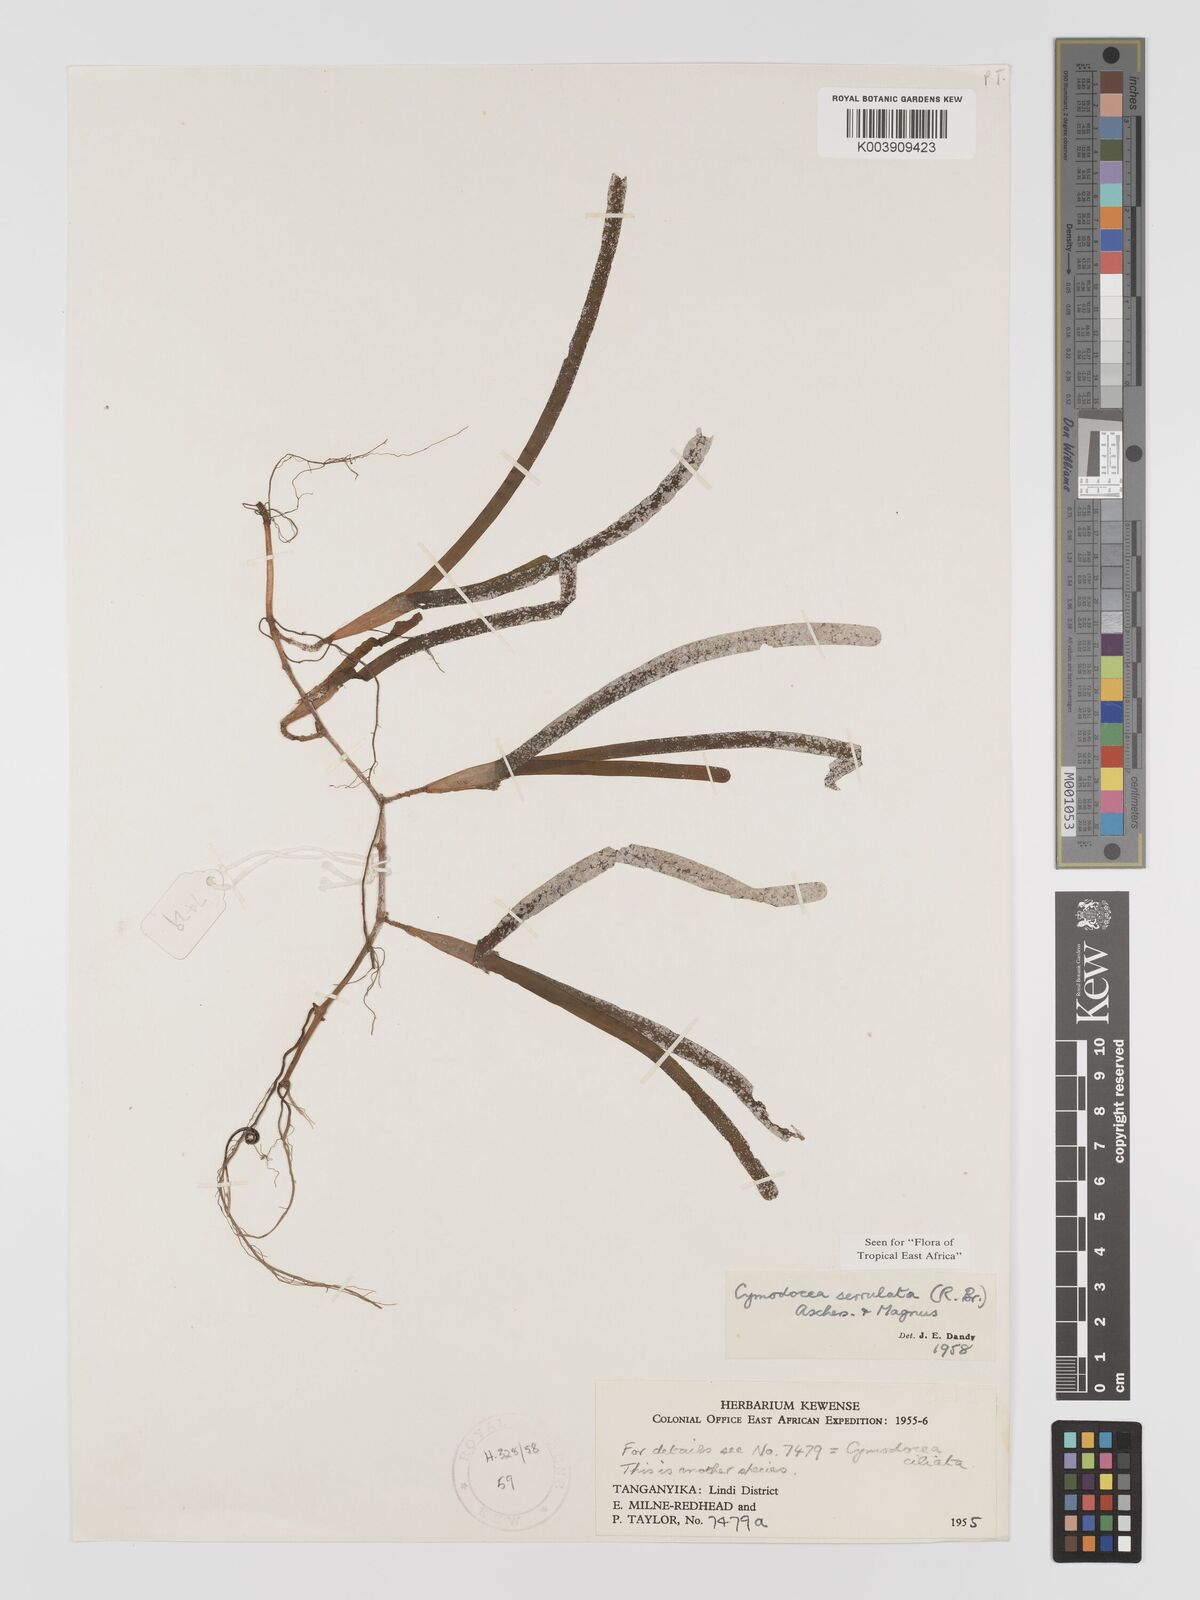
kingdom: Plantae
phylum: Tracheophyta
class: Liliopsida
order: Alismatales
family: Cymodoceaceae
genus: Oceana
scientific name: Oceana serrulata
